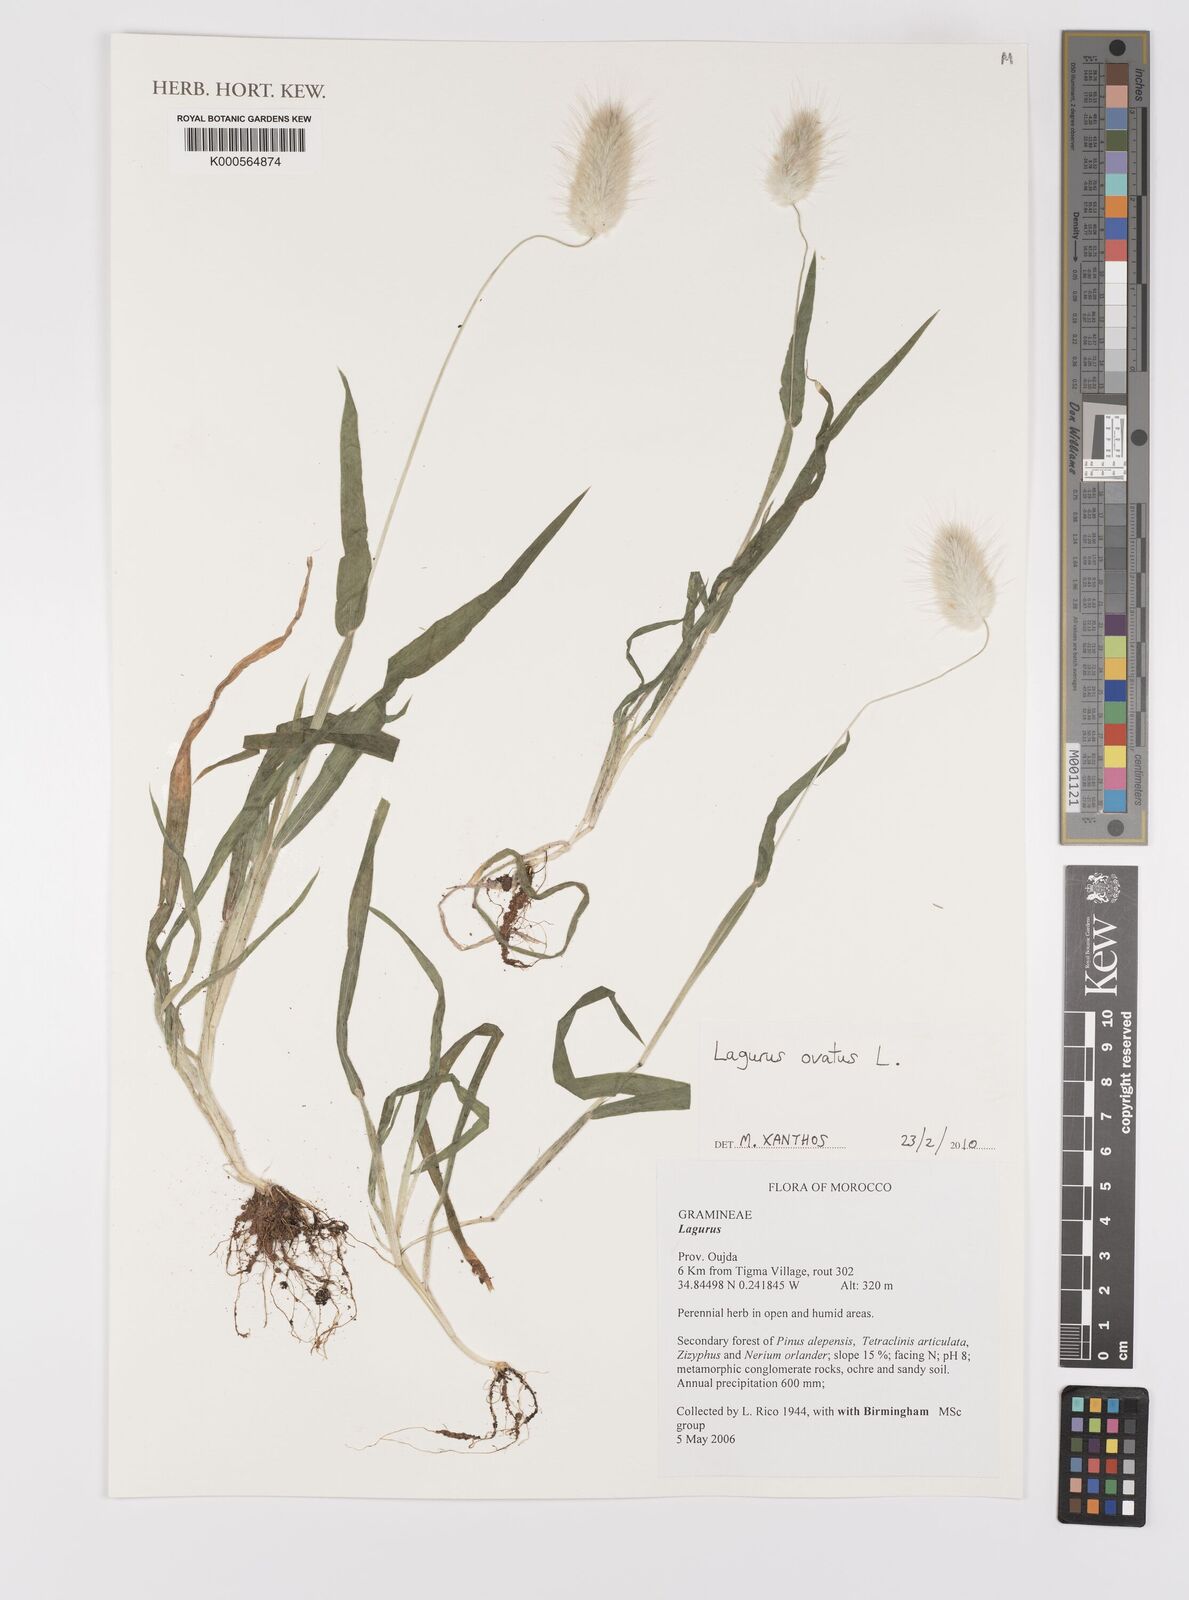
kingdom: Plantae
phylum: Tracheophyta
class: Liliopsida
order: Poales
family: Poaceae
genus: Lagurus
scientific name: Lagurus ovatus
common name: Hare's-tail
